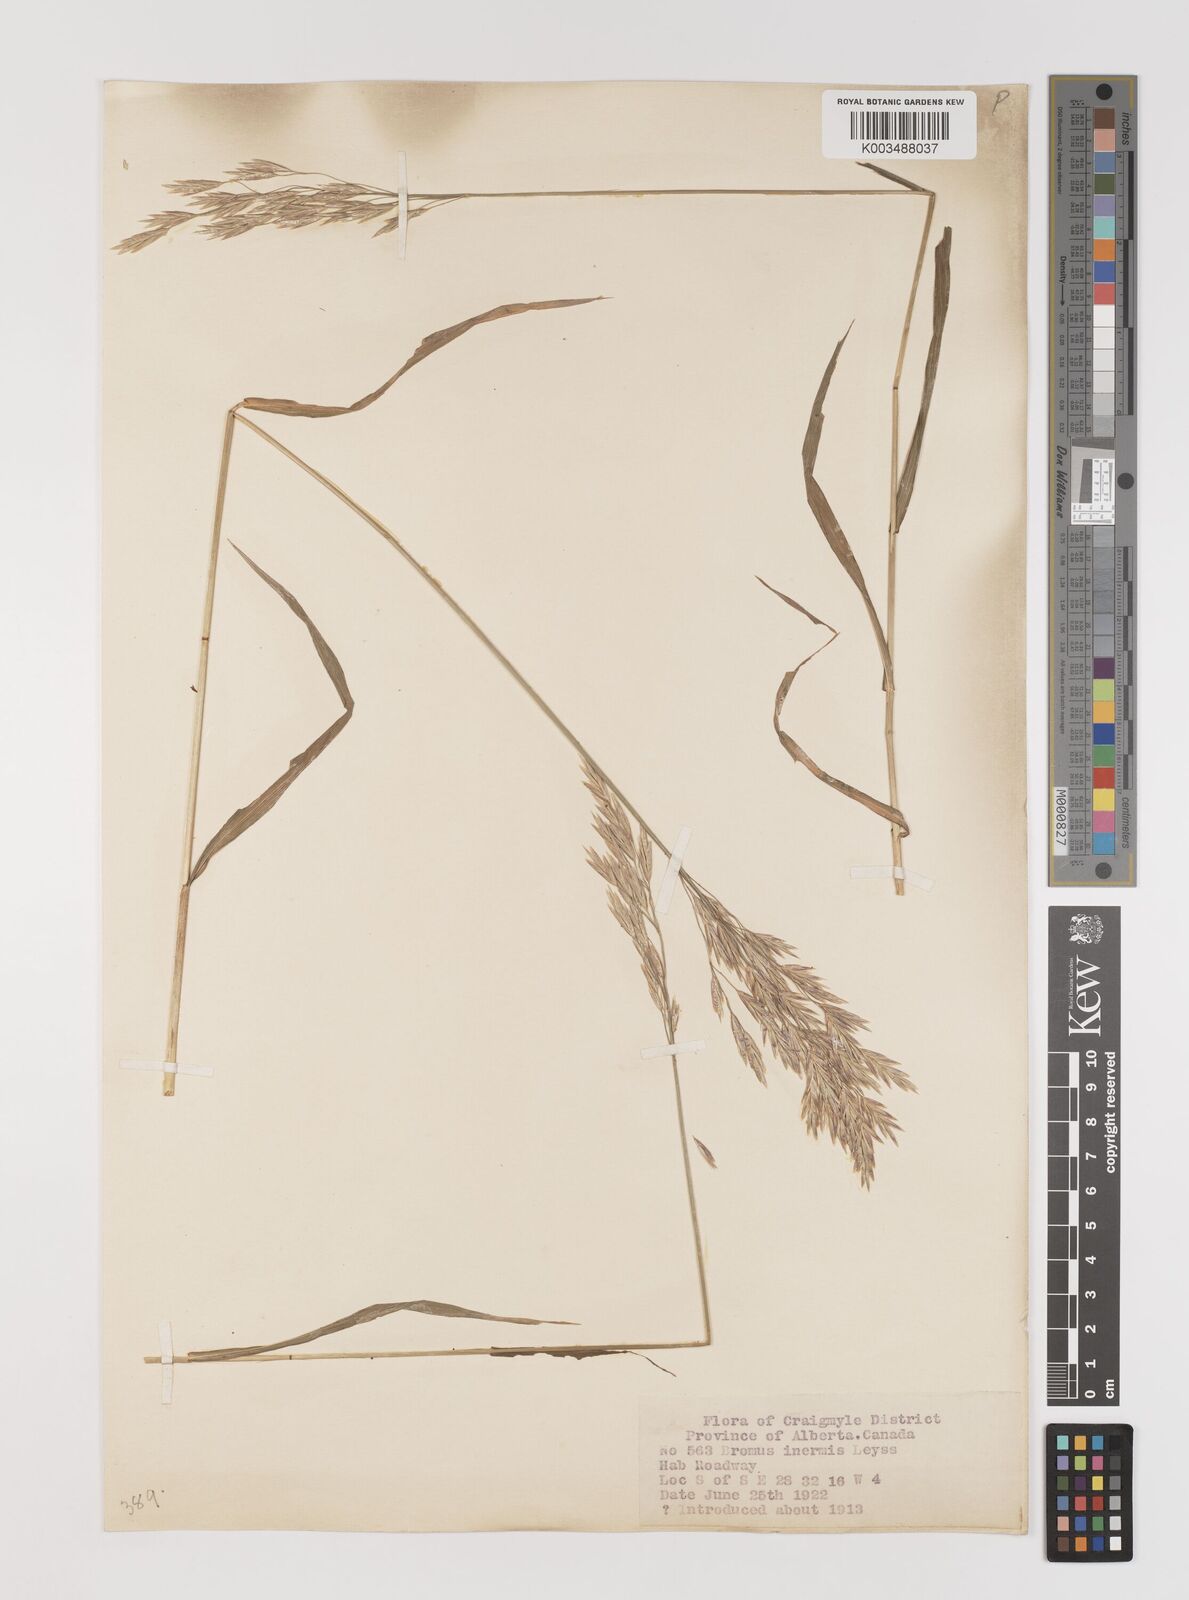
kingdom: Plantae
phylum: Tracheophyta
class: Liliopsida
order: Poales
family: Poaceae
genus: Bromus
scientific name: Bromus inermis
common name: Smooth brome
